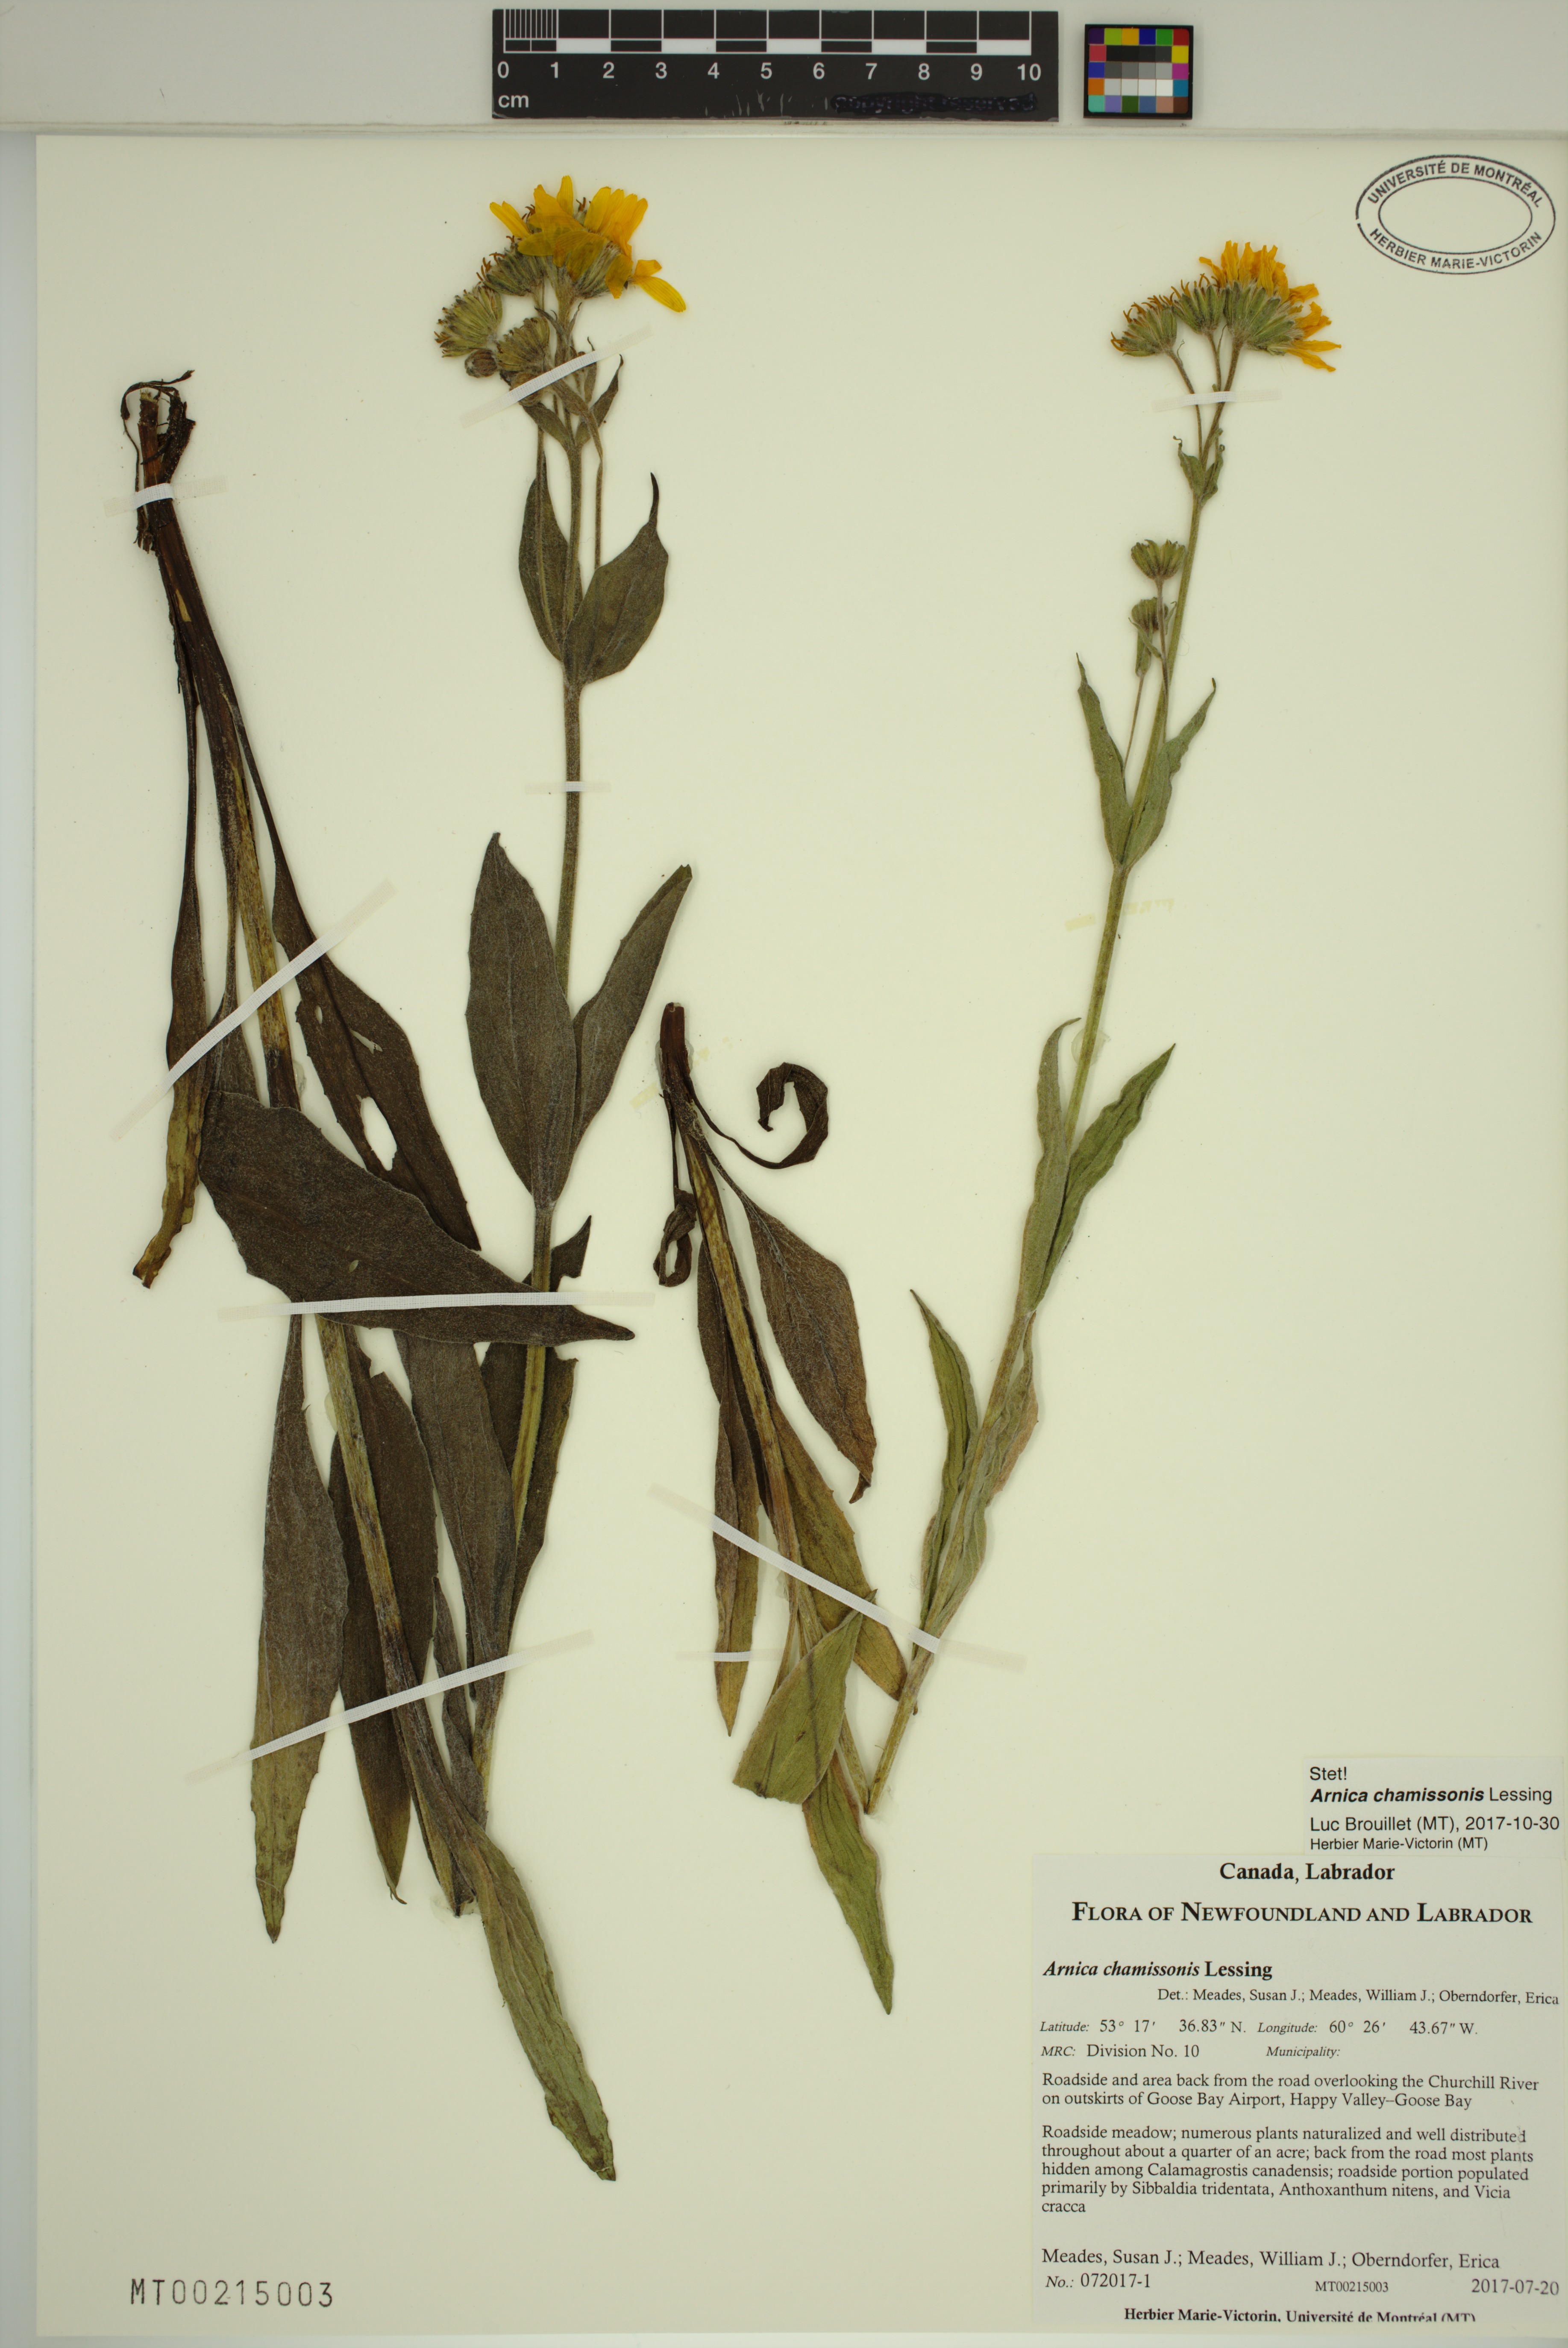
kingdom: Plantae
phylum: Tracheophyta
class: Magnoliopsida
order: Asterales
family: Asteraceae
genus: Arnica
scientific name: Arnica chamissonis
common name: Leafy arnica
